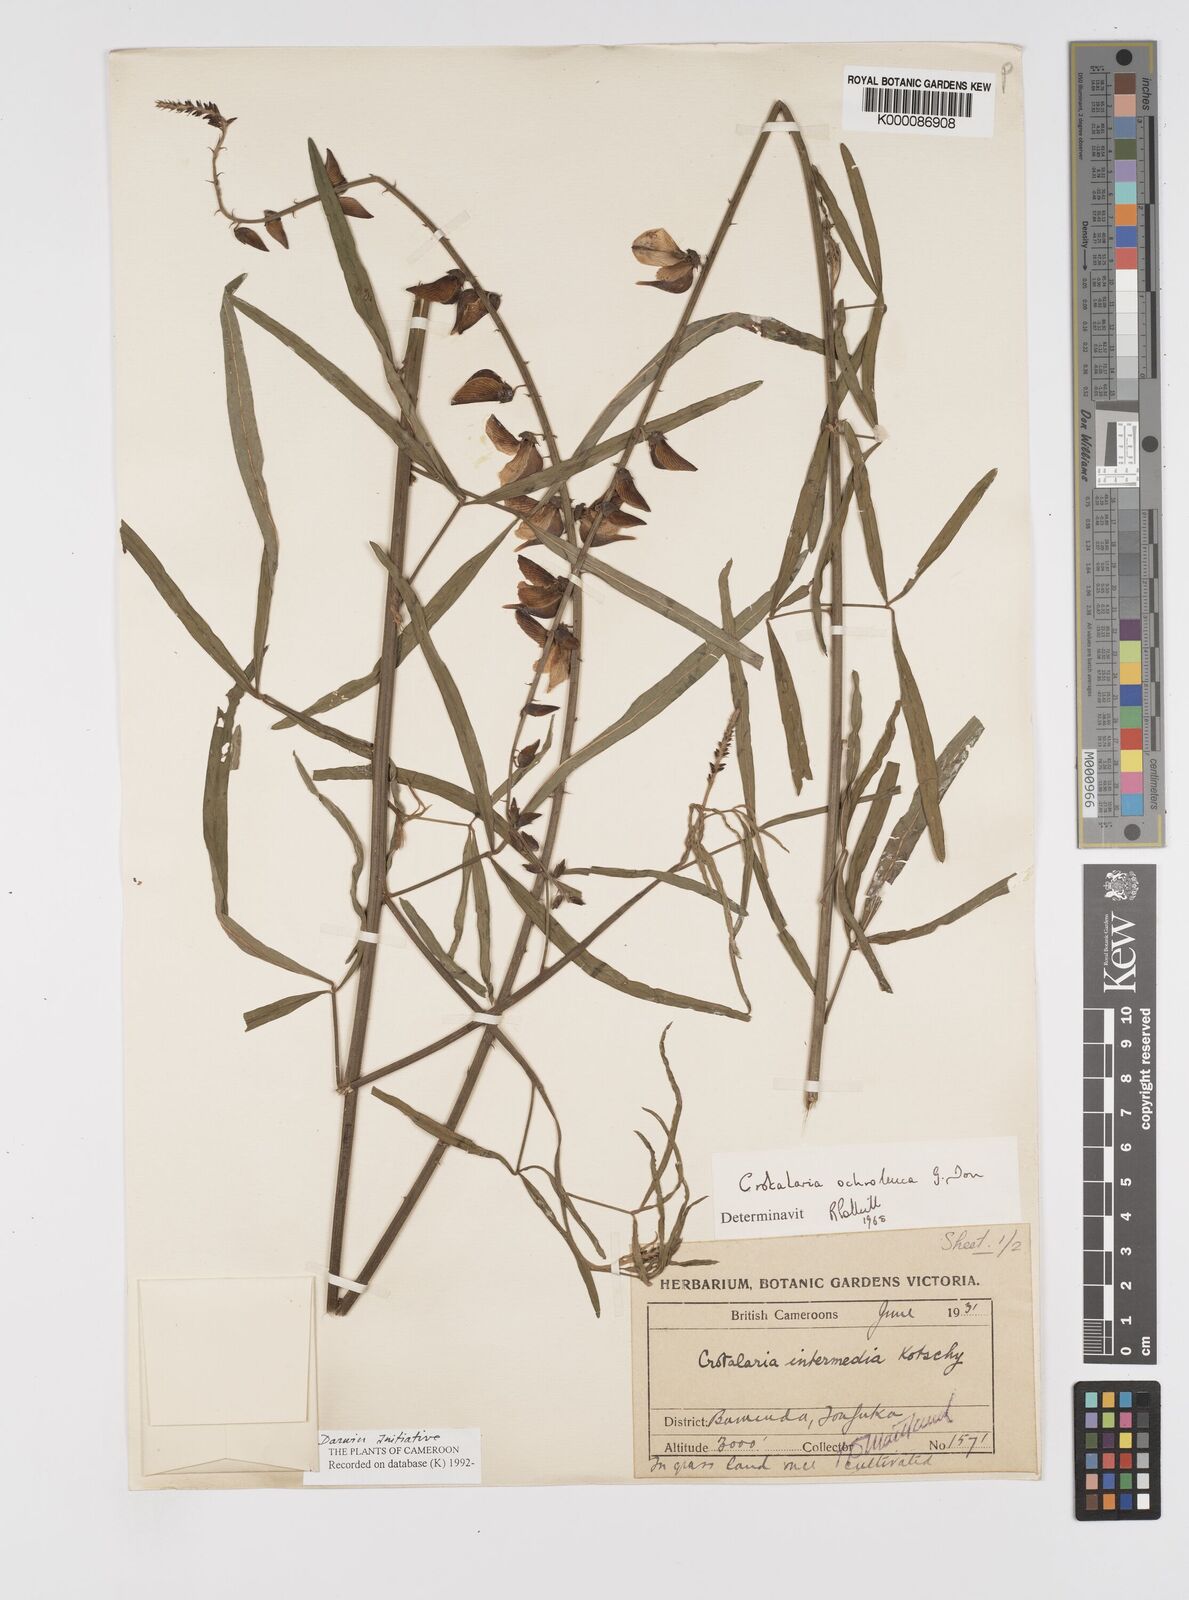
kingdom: Plantae
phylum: Tracheophyta
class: Magnoliopsida
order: Fabales
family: Fabaceae
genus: Crotalaria
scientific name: Crotalaria ochroleuca
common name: Slender leaf rattlebox
